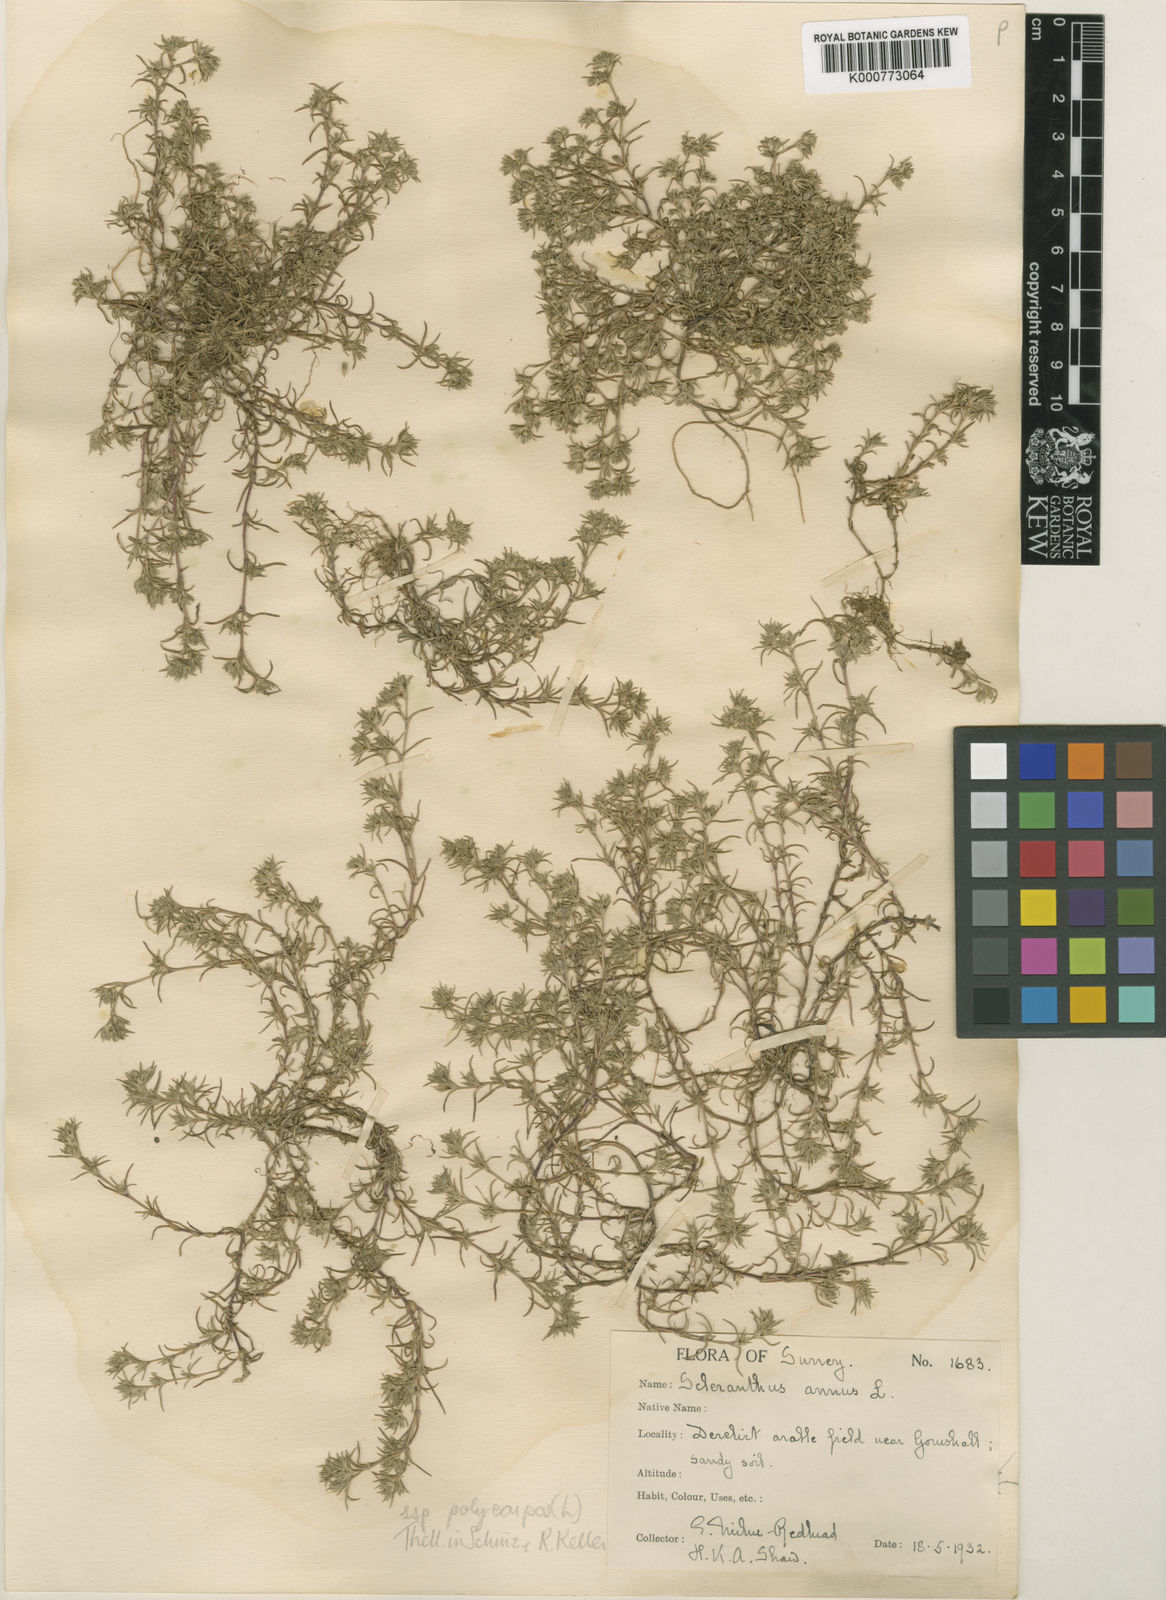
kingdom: Plantae
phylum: Tracheophyta
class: Magnoliopsida
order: Caryophyllales
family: Caryophyllaceae
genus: Scleranthus
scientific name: Scleranthus annuus
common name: Annual knawel
